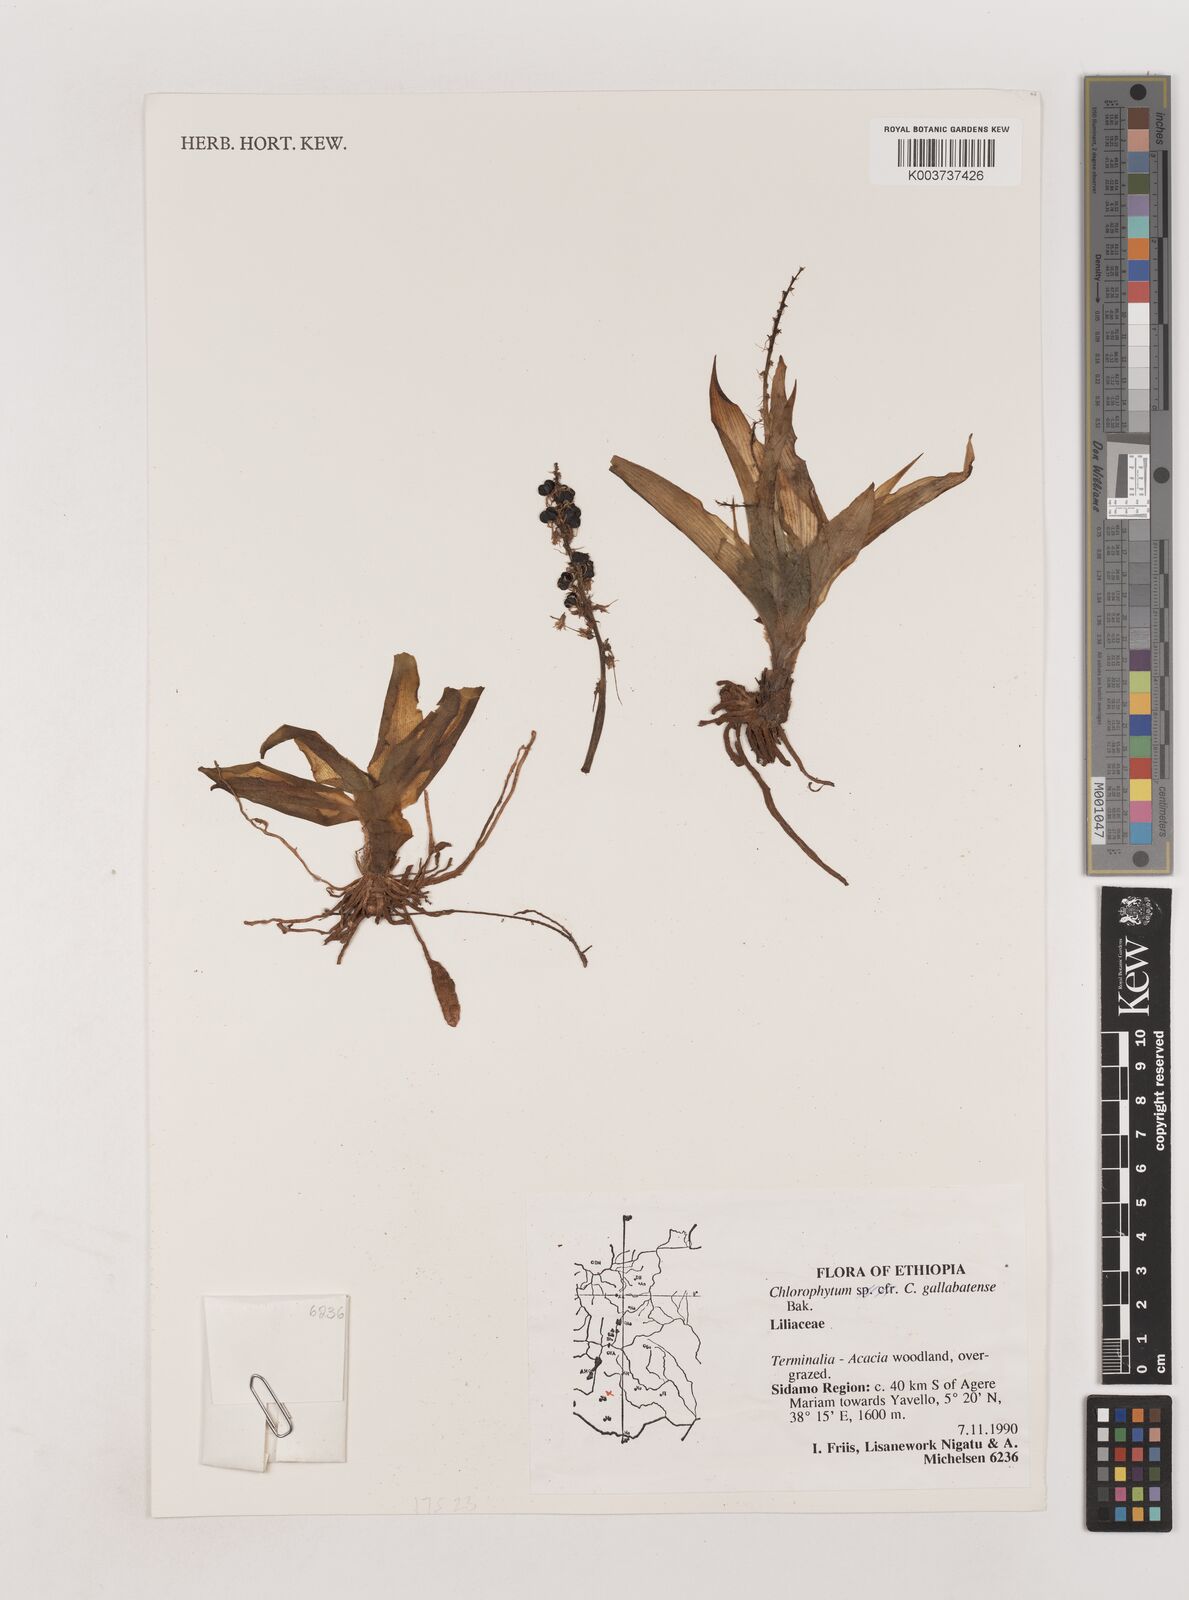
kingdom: Plantae
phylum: Tracheophyta
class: Liliopsida
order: Asparagales
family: Asparagaceae
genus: Chlorophytum
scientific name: Chlorophytum gallabatense
